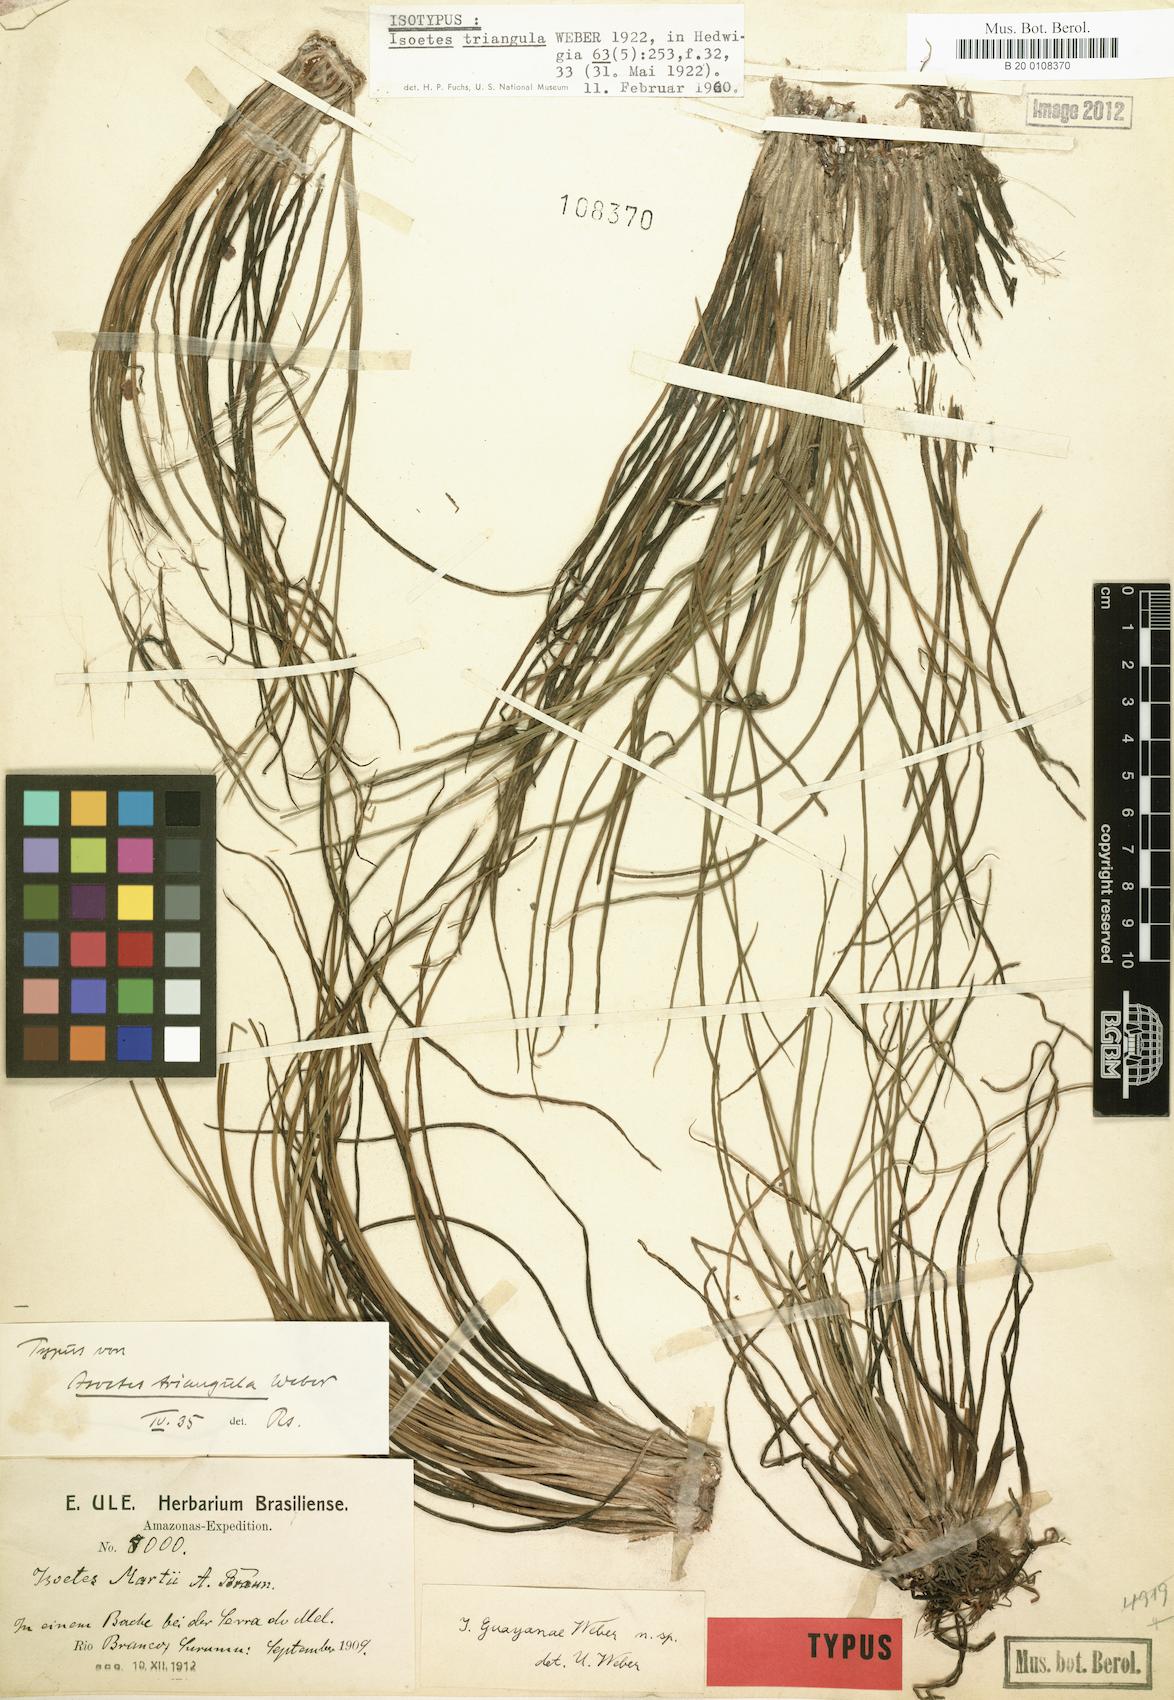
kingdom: Plantae
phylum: Tracheophyta
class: Lycopodiopsida
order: Isoetales
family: Isoetaceae
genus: Isoetes
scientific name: Isoetes triangula
